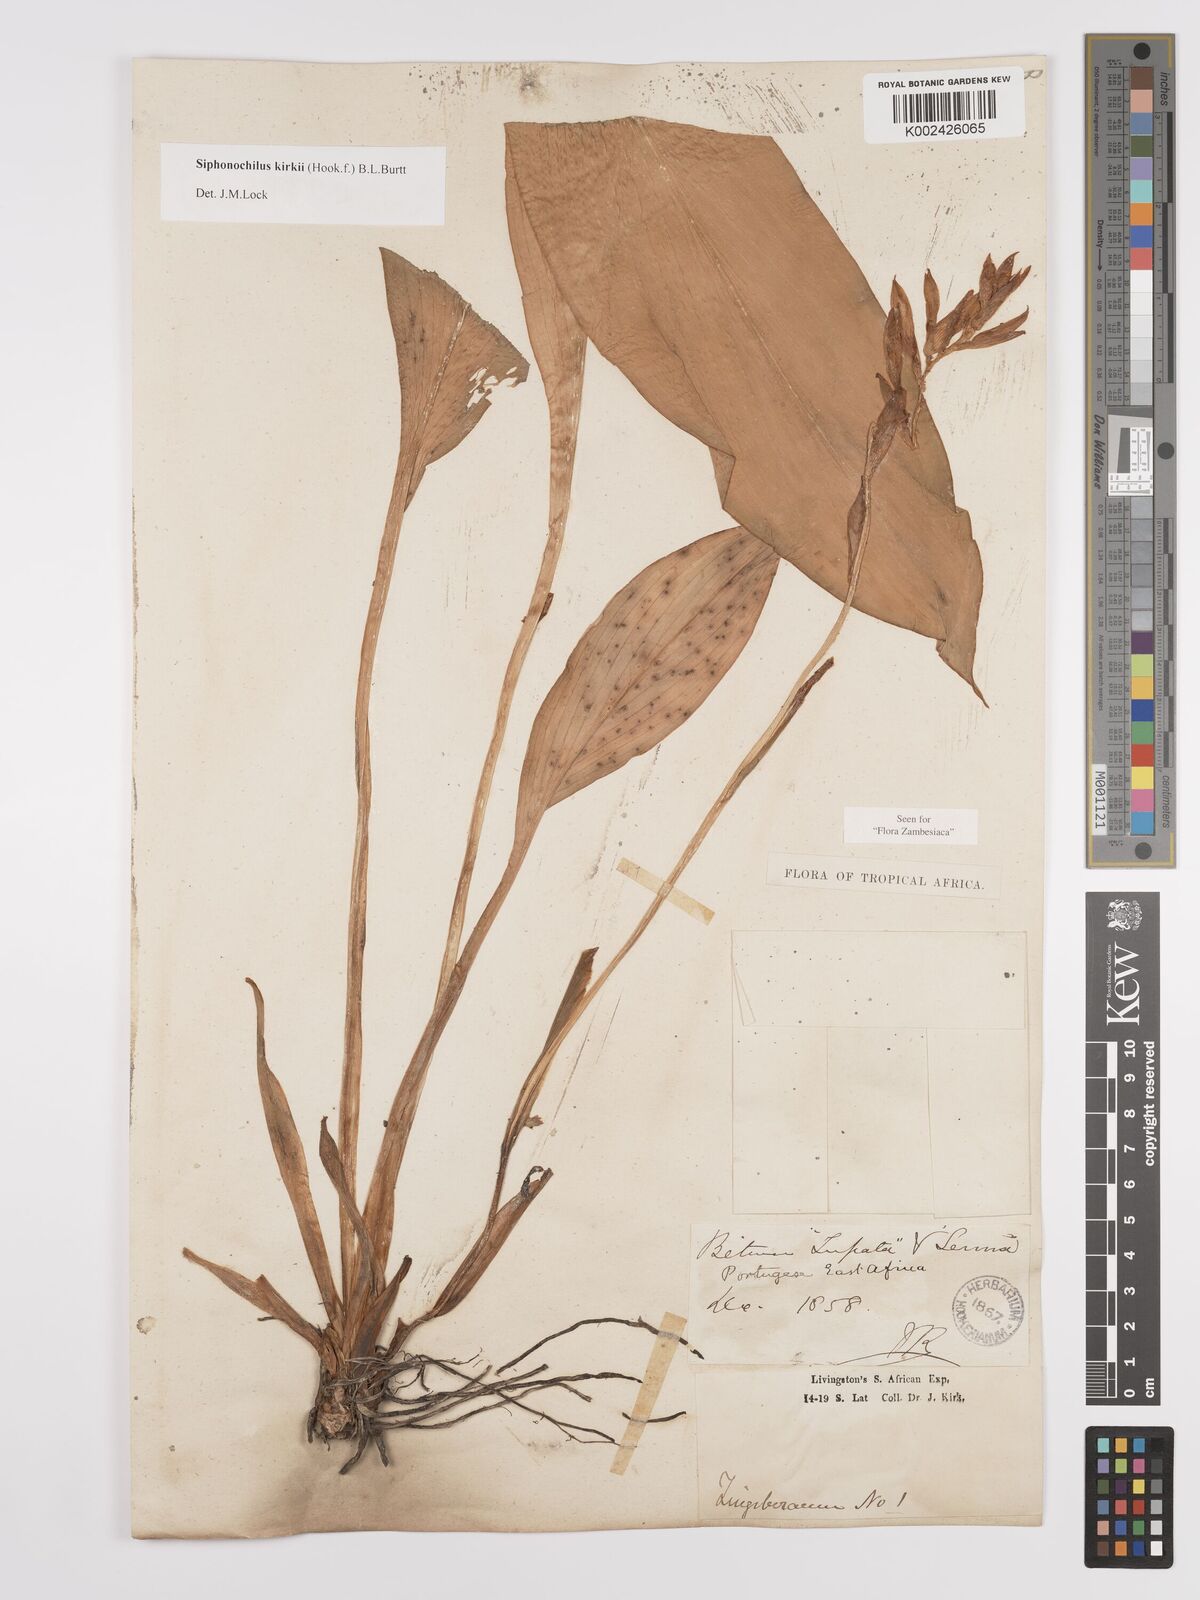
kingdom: Plantae
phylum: Tracheophyta
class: Liliopsida
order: Zingiberales
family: Zingiberaceae
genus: Siphonochilus
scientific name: Siphonochilus kirkii
